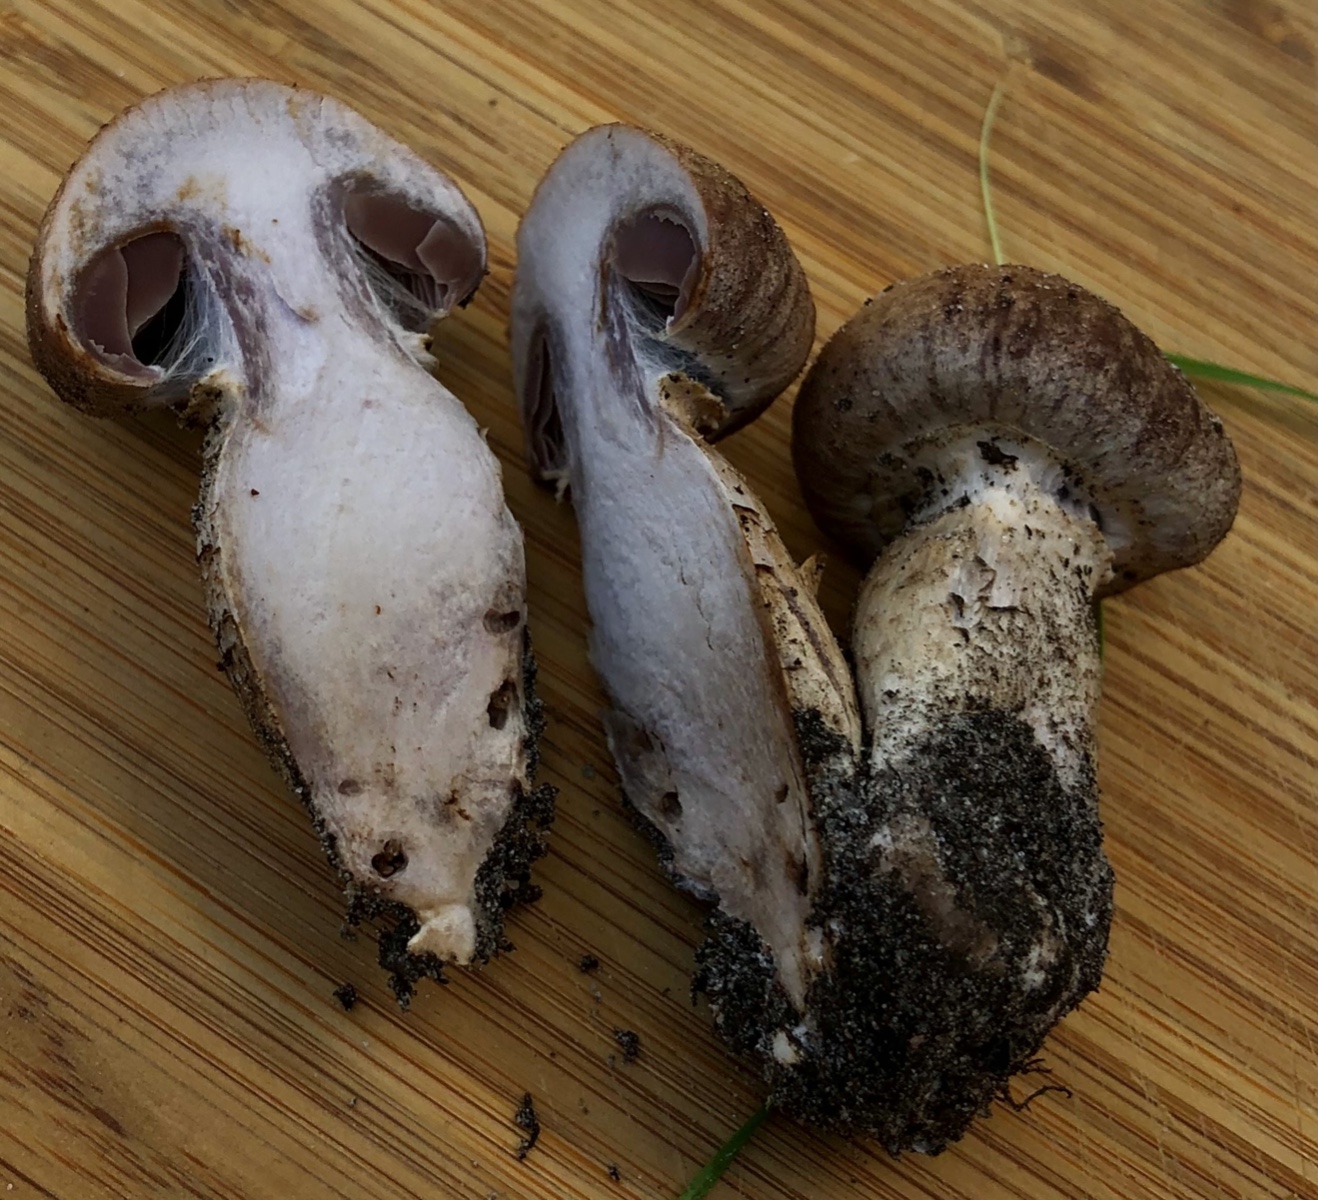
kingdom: Fungi
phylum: Basidiomycota
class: Agaricomycetes
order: Agaricales
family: Cortinariaceae
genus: Cortinarius
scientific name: Cortinarius torvus
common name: champignonagtig slørhat
